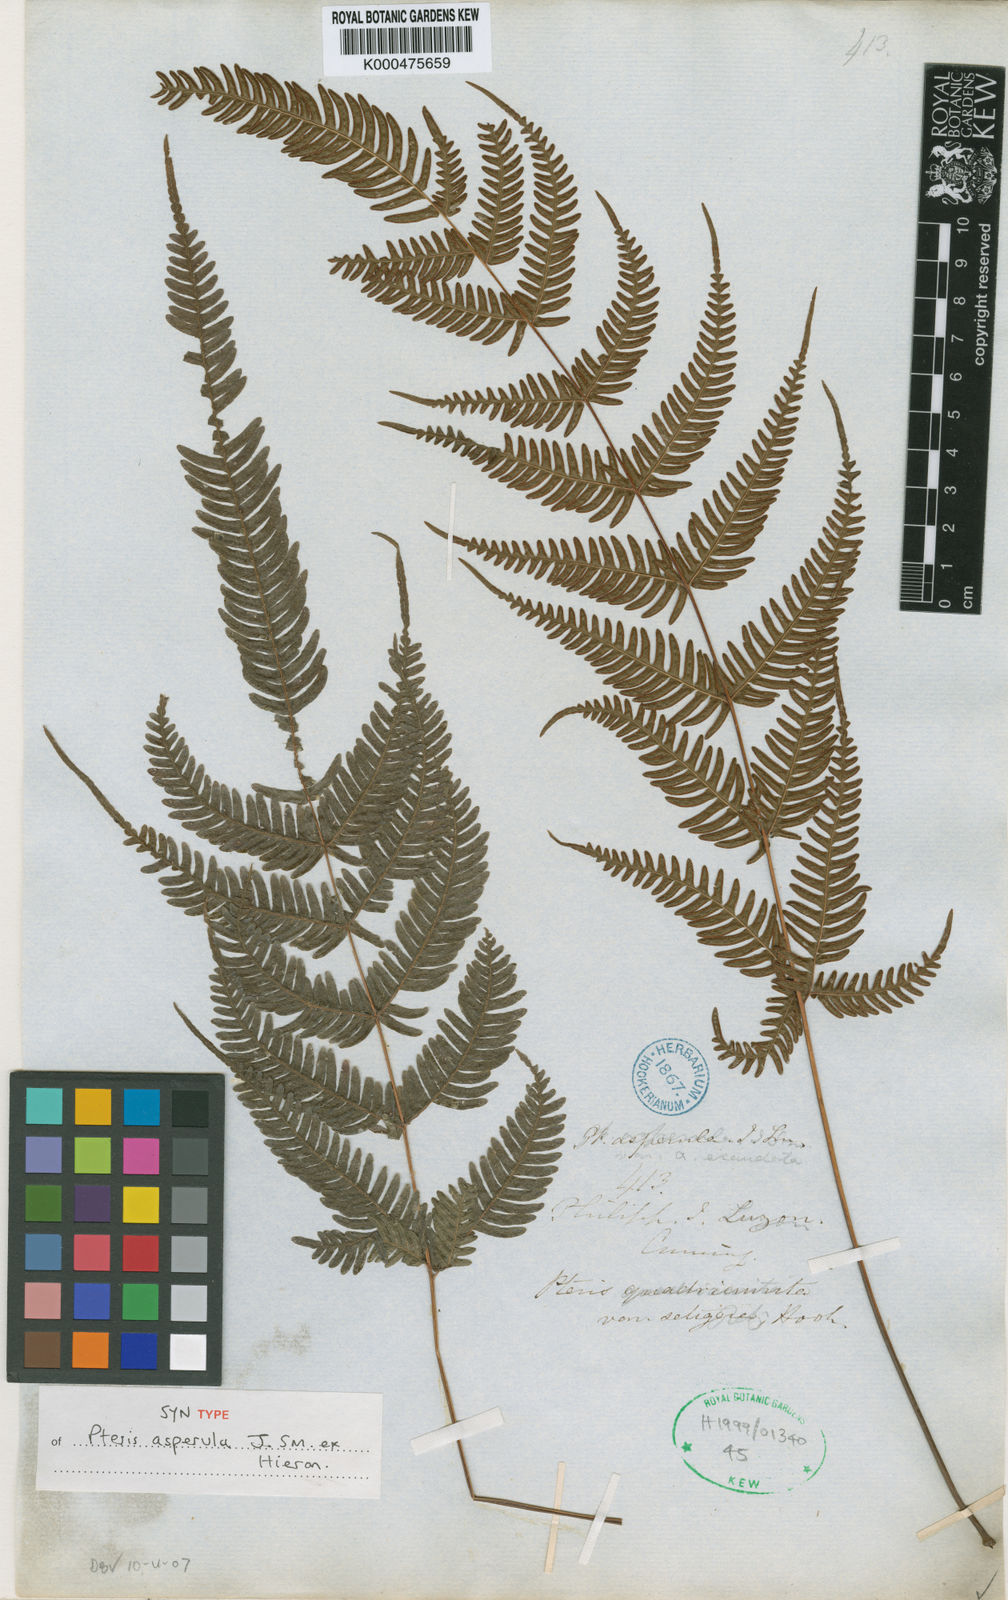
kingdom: Plantae
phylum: Tracheophyta
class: Polypodiopsida
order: Polypodiales
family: Pteridaceae
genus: Pteris
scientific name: Pteris oppositipinnata
